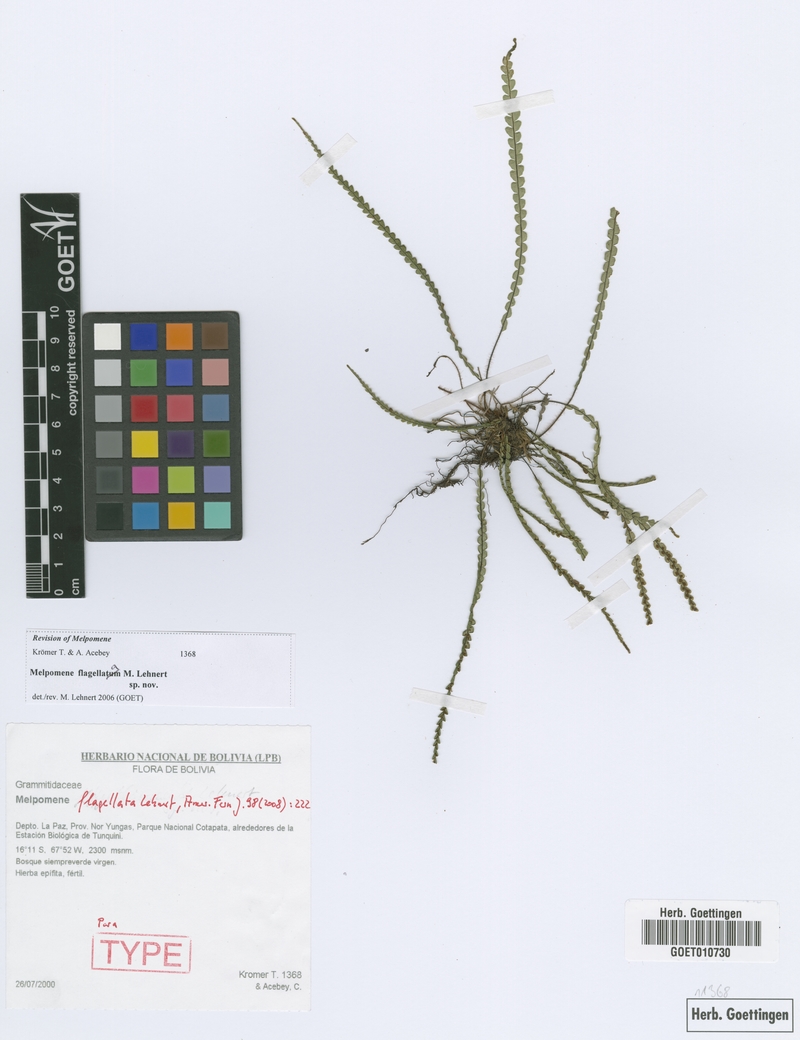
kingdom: Plantae
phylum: Tracheophyta
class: Polypodiopsida
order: Polypodiales
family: Polypodiaceae
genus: Melpomene
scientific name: Melpomene flagellata
